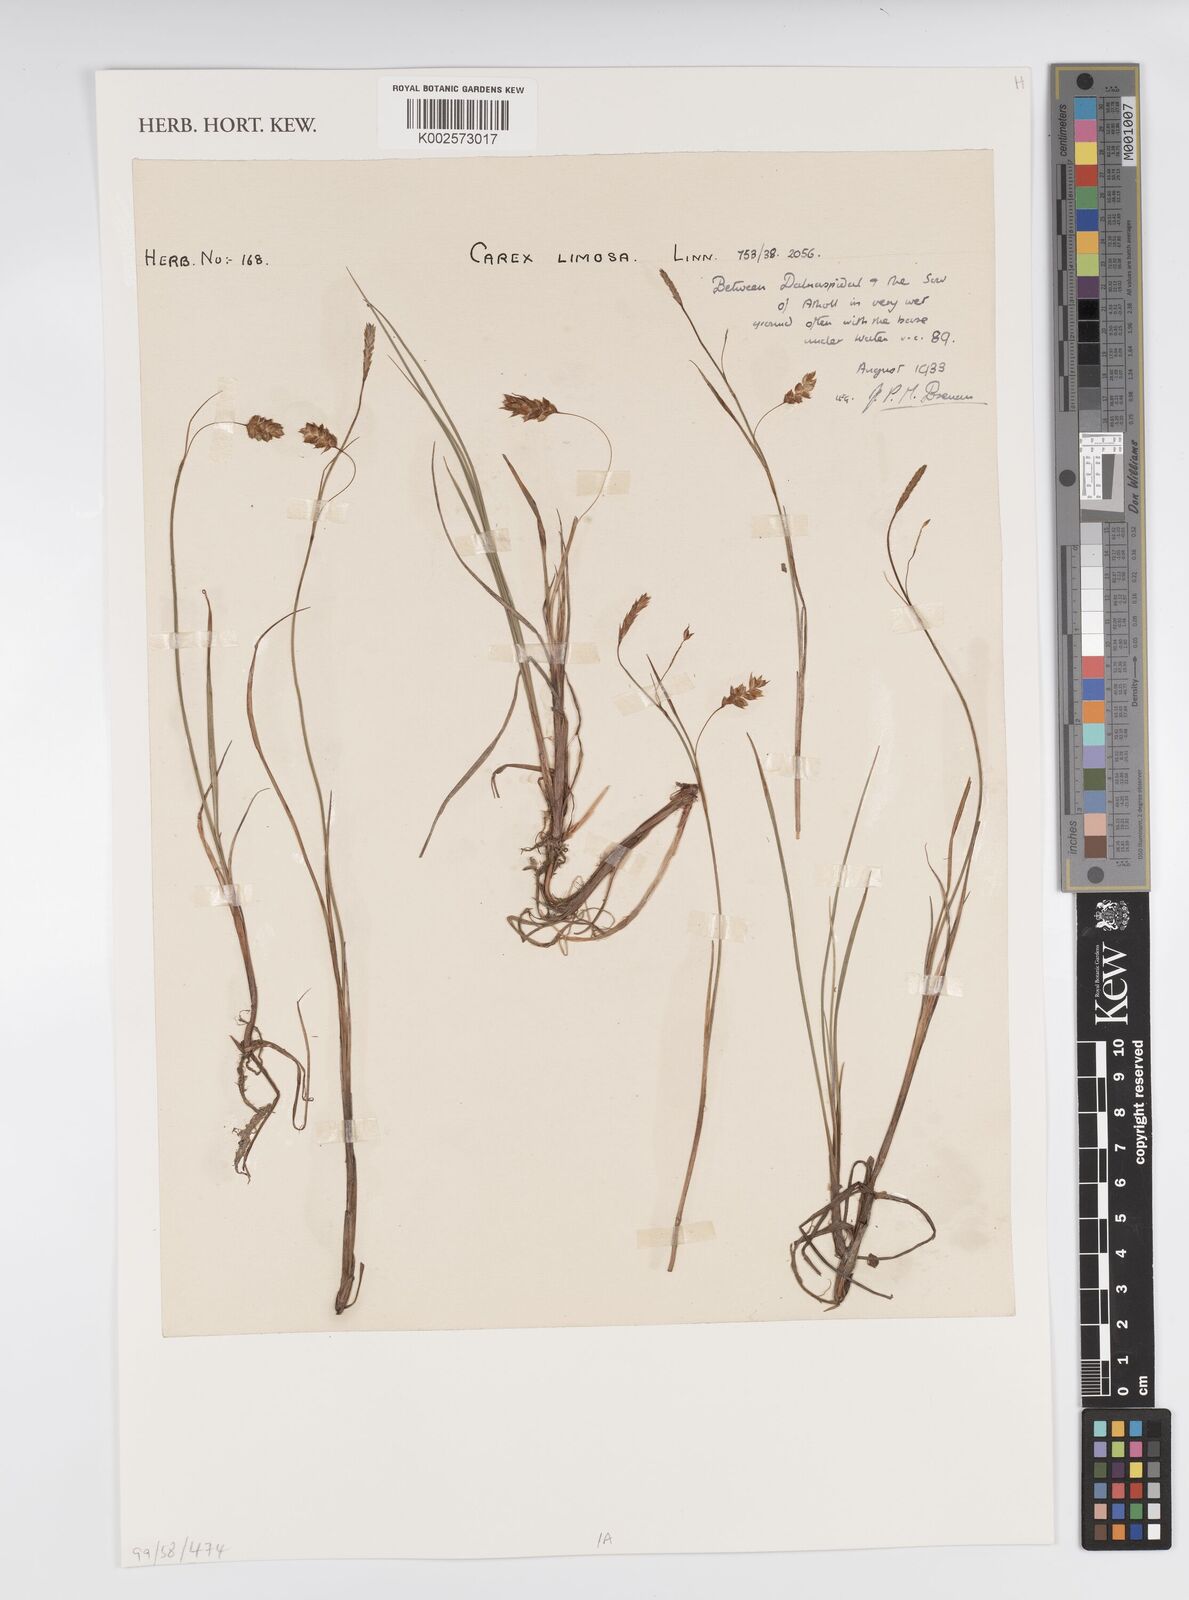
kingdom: Plantae
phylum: Tracheophyta
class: Liliopsida
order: Poales
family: Cyperaceae
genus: Carex
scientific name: Carex limosa
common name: Bog sedge
